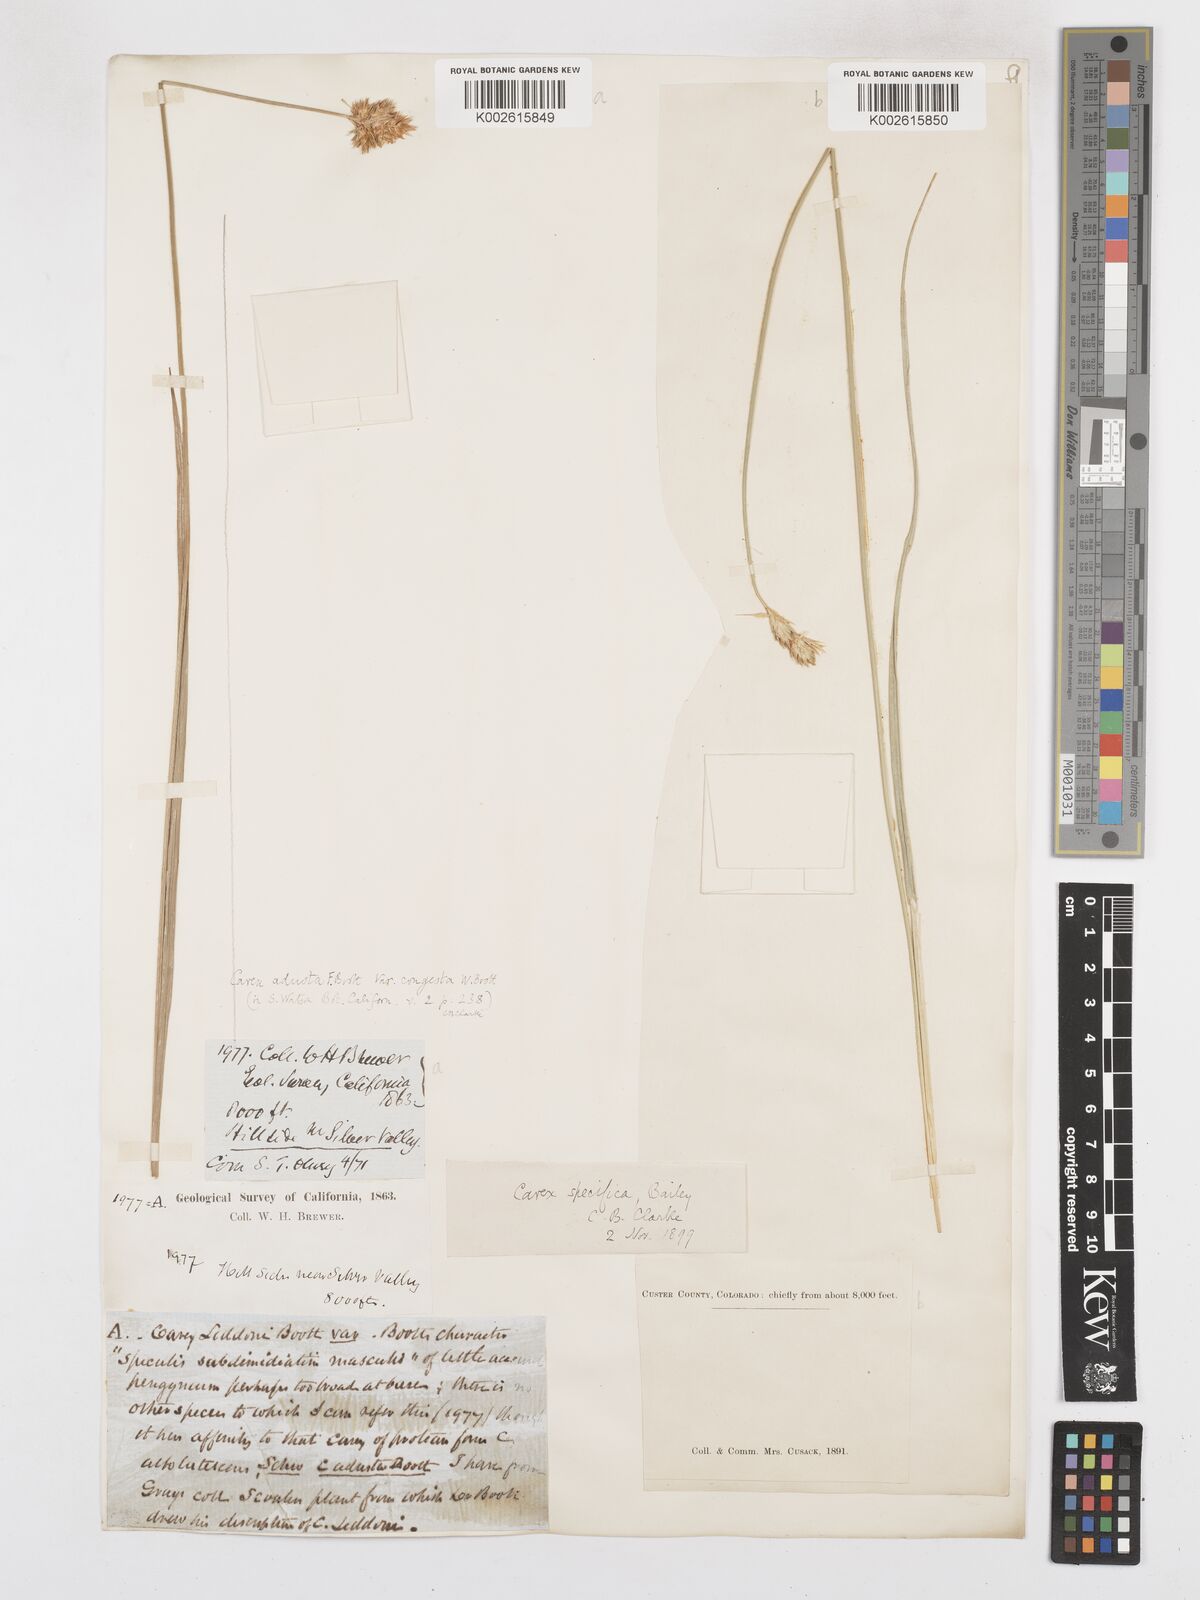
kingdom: Plantae
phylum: Tracheophyta
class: Liliopsida
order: Poales
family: Cyperaceae
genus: Carex
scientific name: Carex specifica
